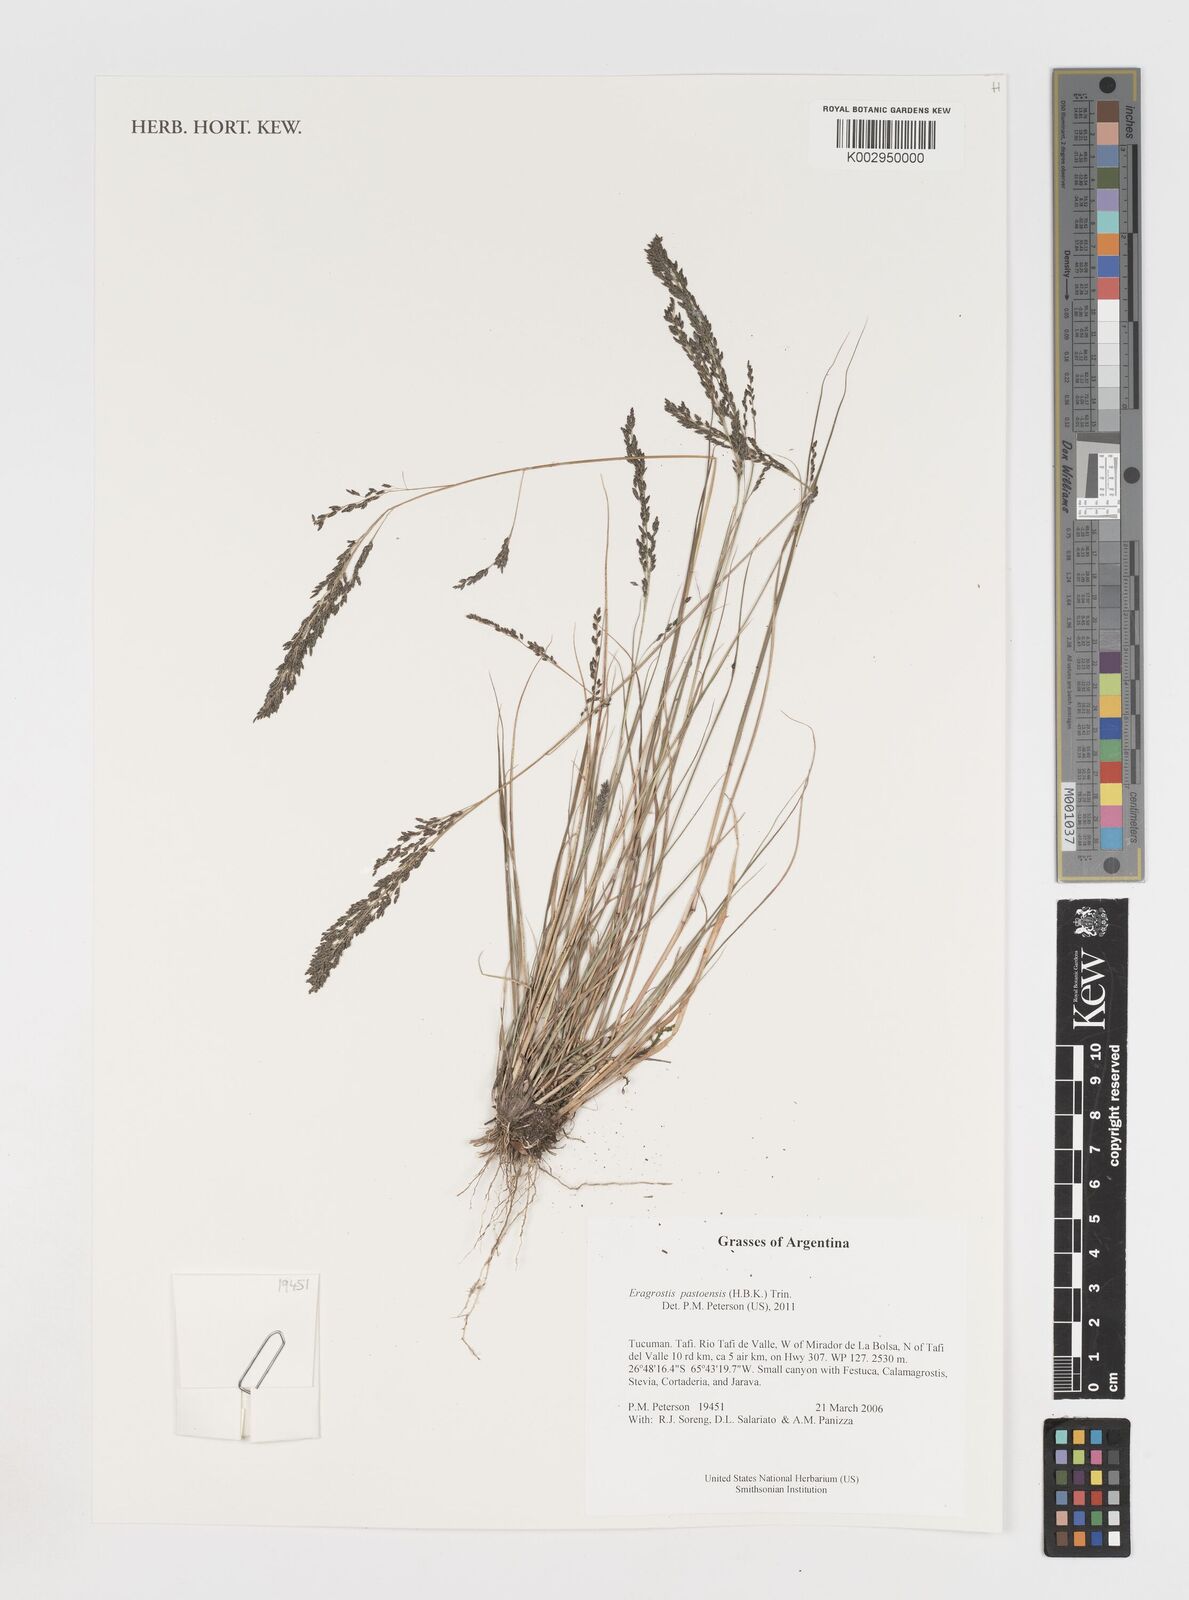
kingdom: Plantae
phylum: Tracheophyta
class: Liliopsida
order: Poales
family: Poaceae
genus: Eragrostis
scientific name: Eragrostis pastoensis
